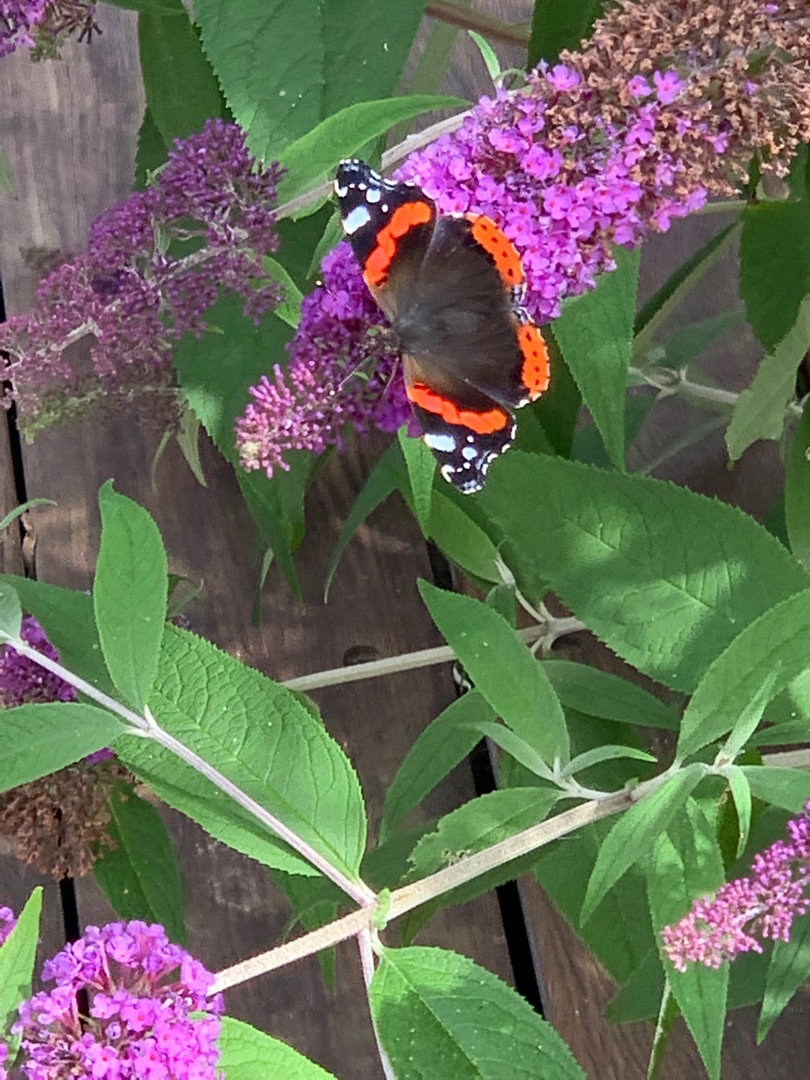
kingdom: Animalia
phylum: Arthropoda
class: Insecta
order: Lepidoptera
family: Nymphalidae
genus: Vanessa
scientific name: Vanessa atalanta
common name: Admiral
